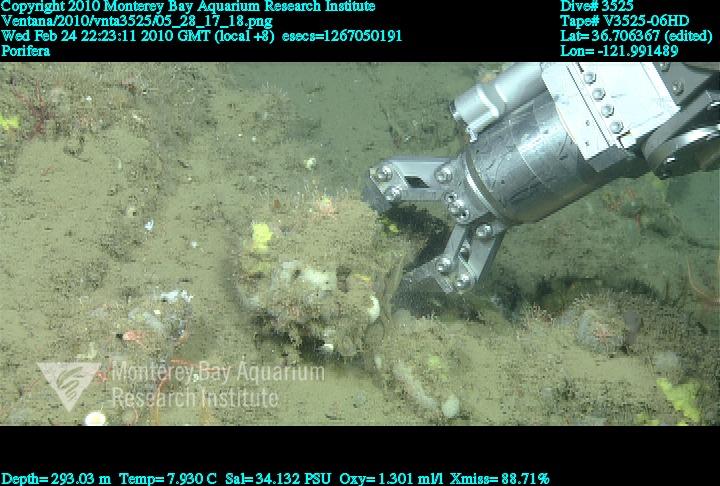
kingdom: Animalia
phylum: Porifera
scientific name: Porifera
